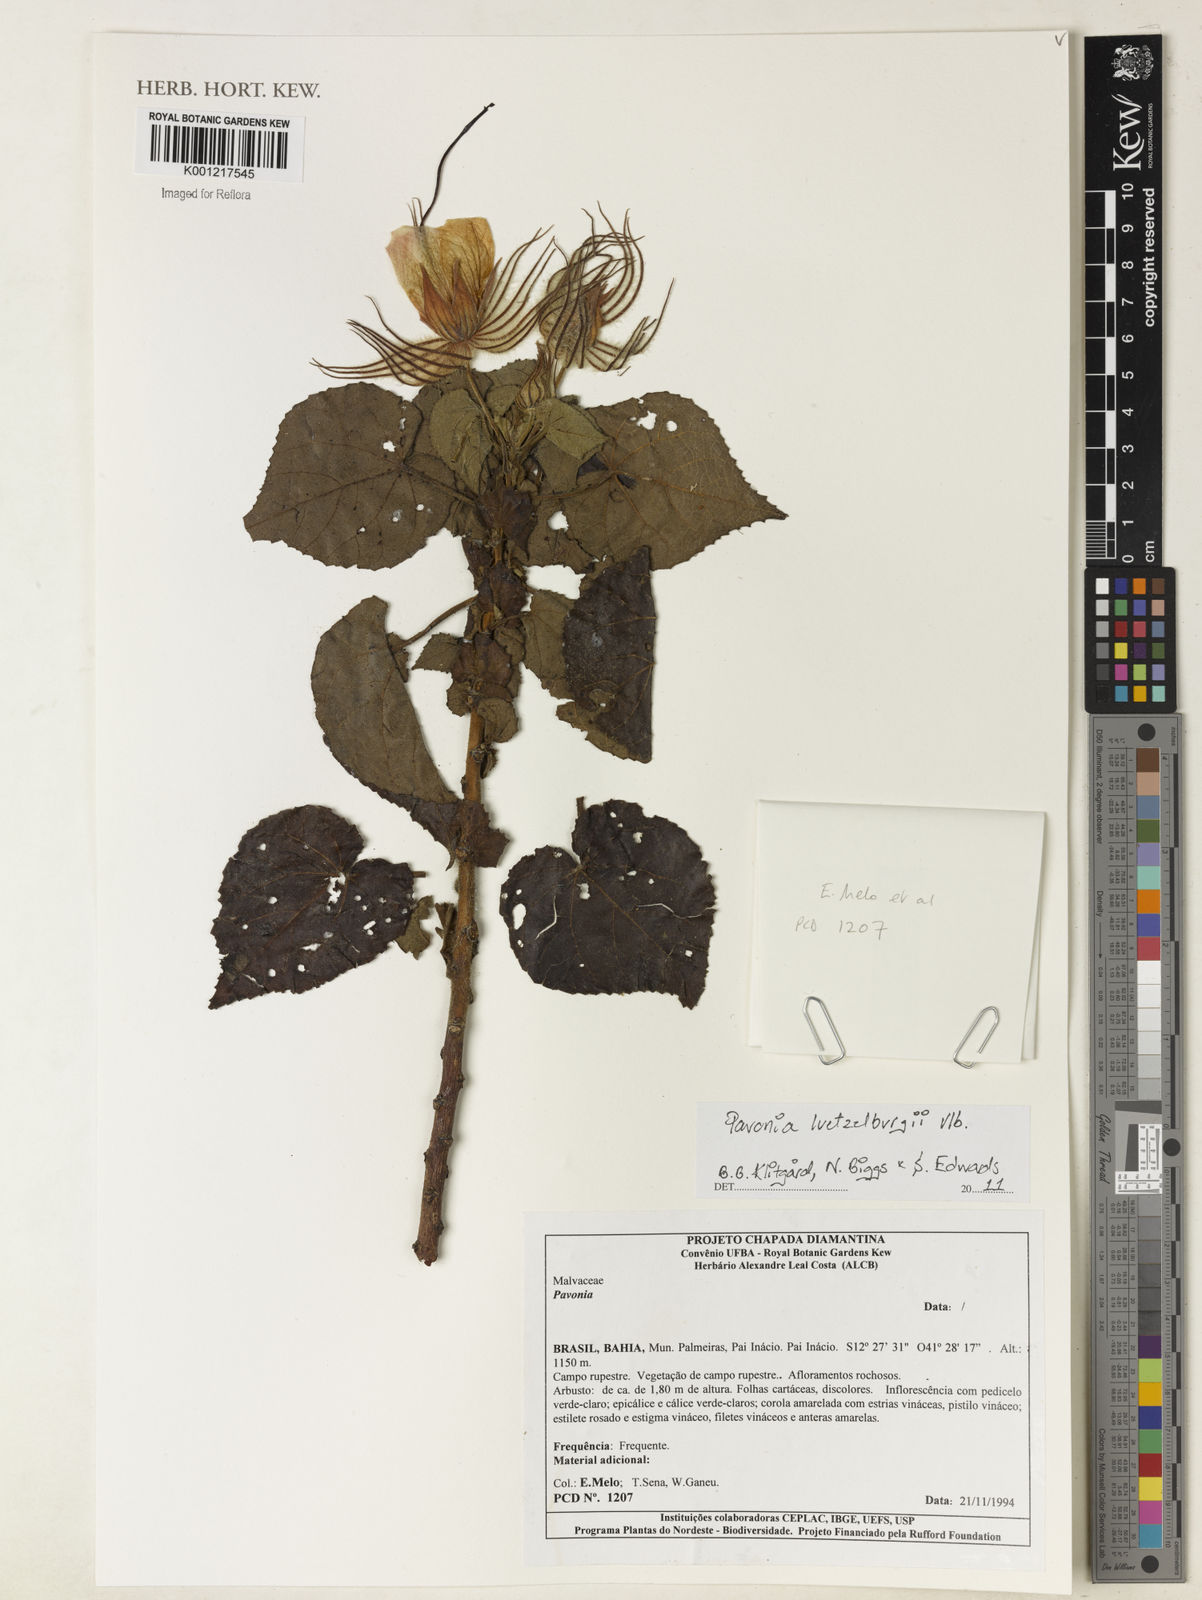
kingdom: Plantae
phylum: Tracheophyta
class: Magnoliopsida
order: Malvales
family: Malvaceae
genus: Pavonia
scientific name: Pavonia luetzelburgii
